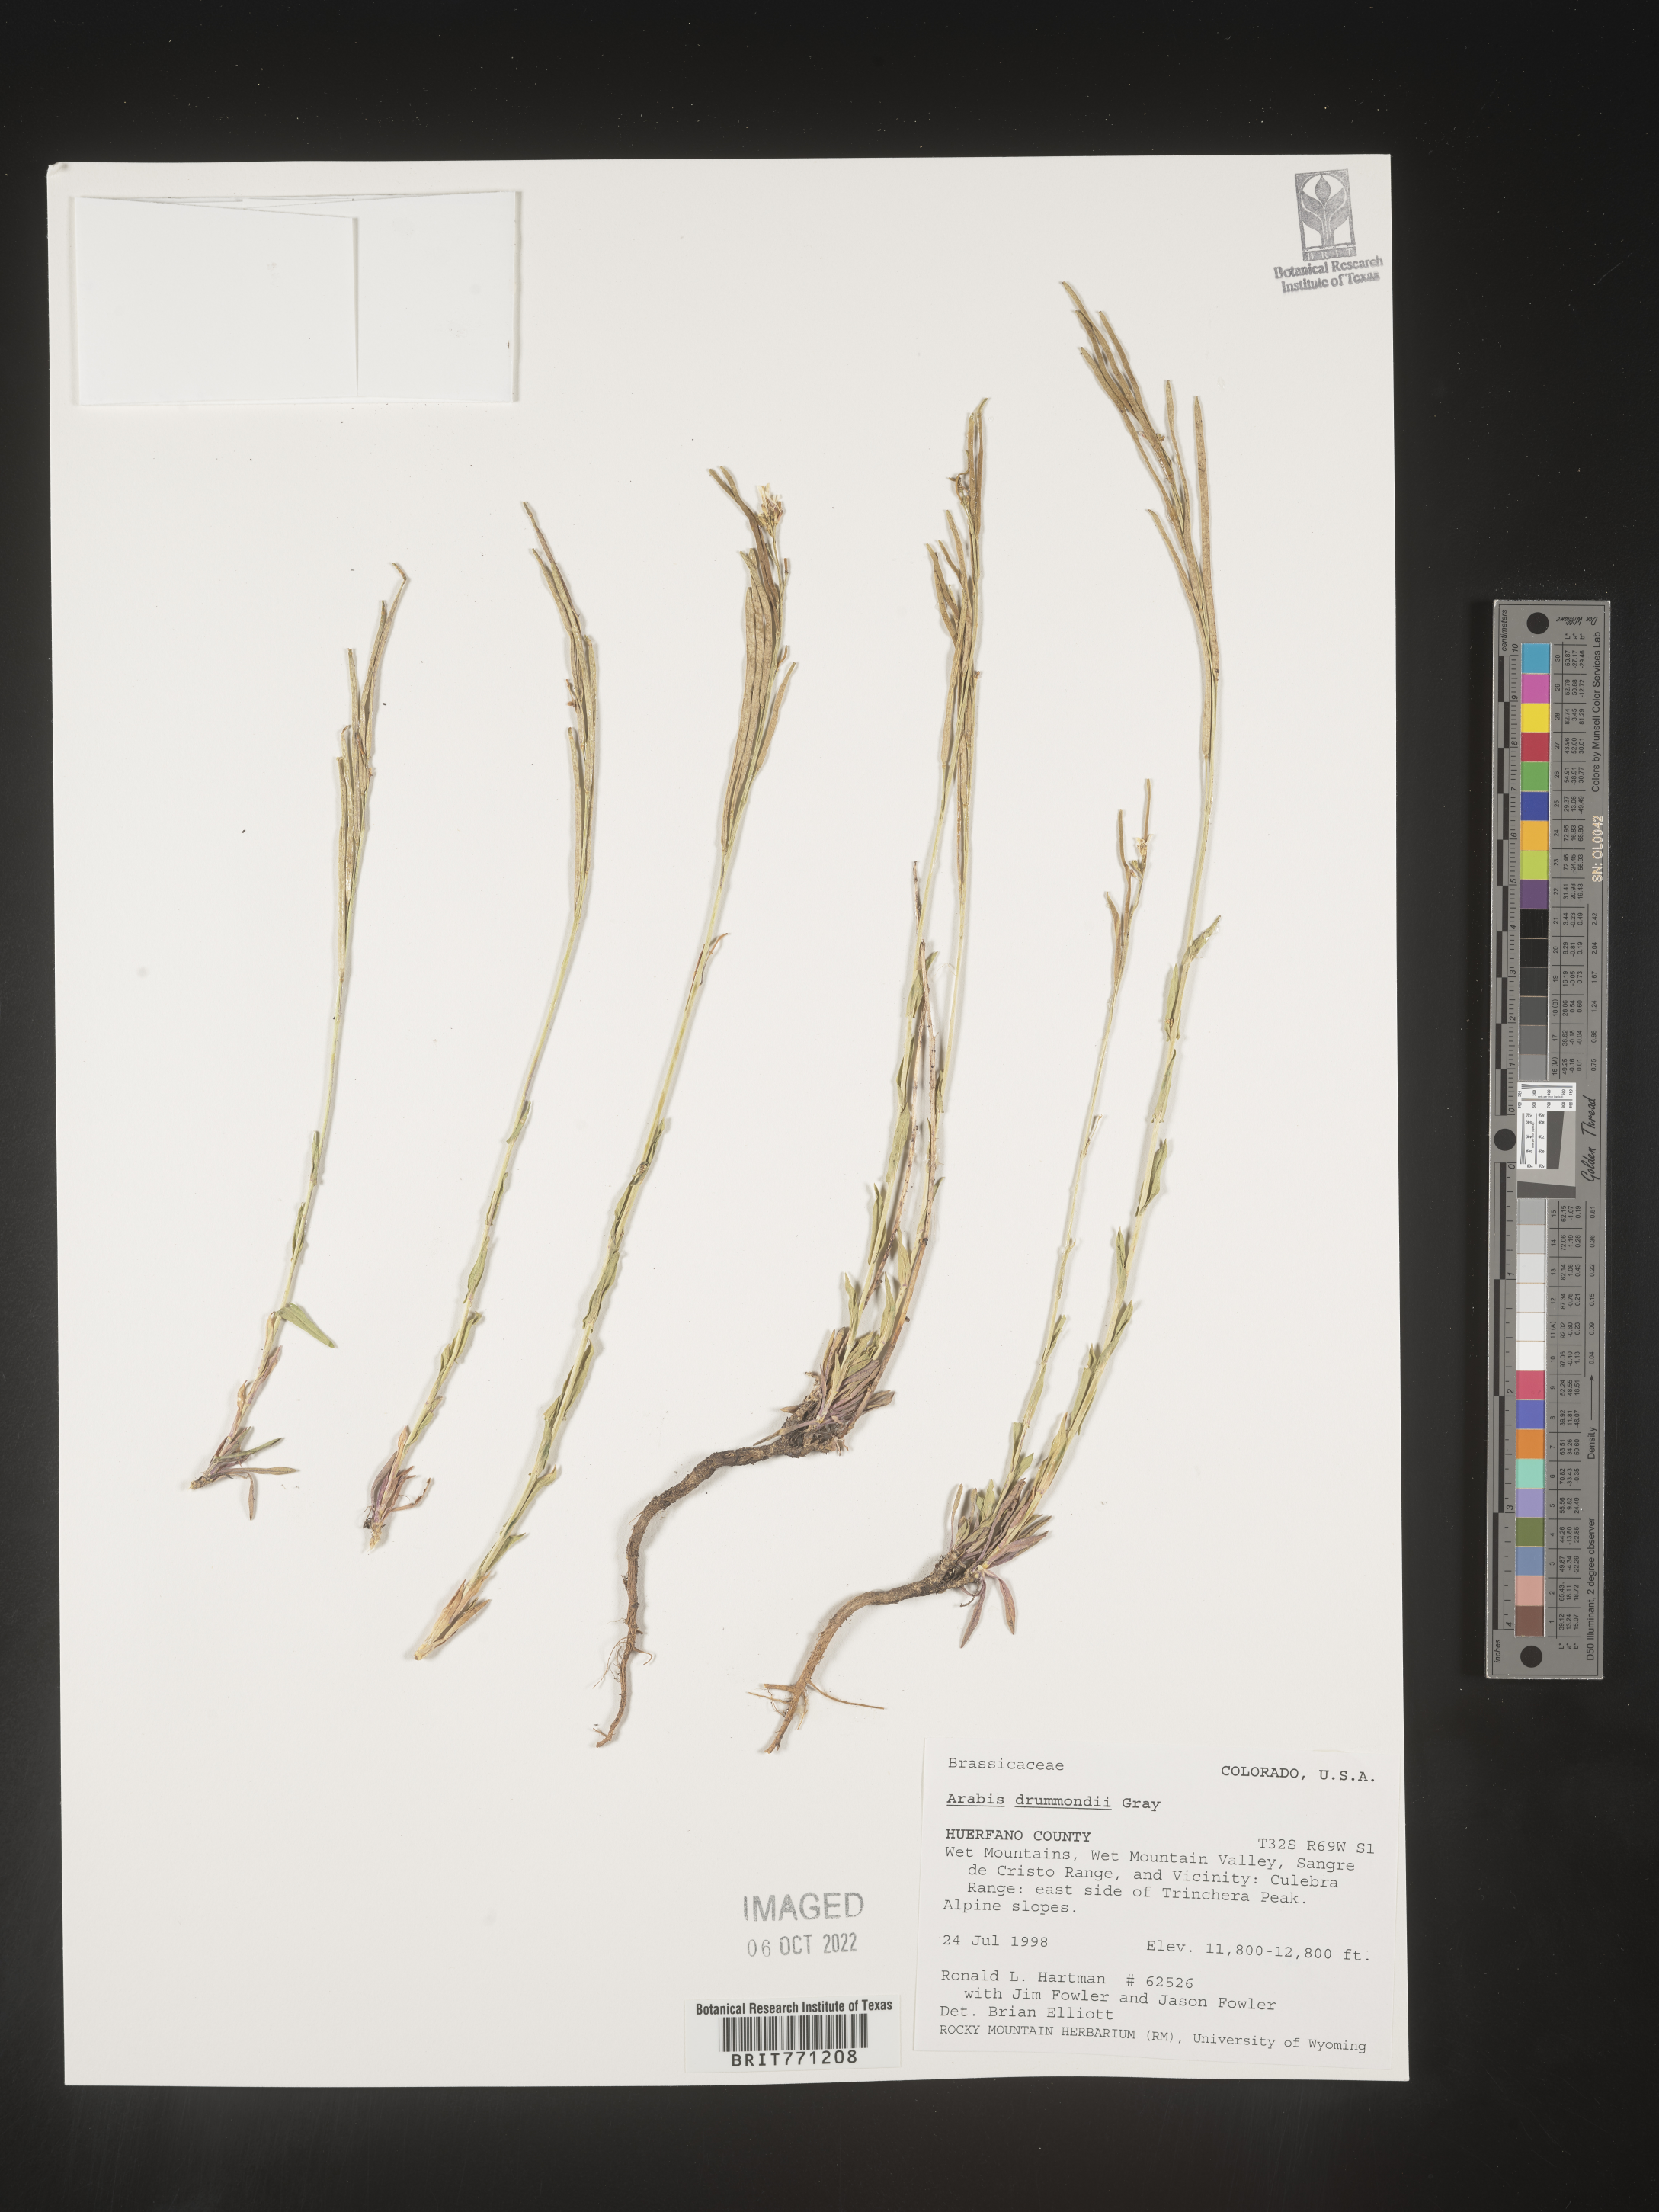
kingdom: Plantae
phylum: Tracheophyta
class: Magnoliopsida
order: Brassicales
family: Brassicaceae
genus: Boechera
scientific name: Boechera stricta
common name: Canadian rockcress
